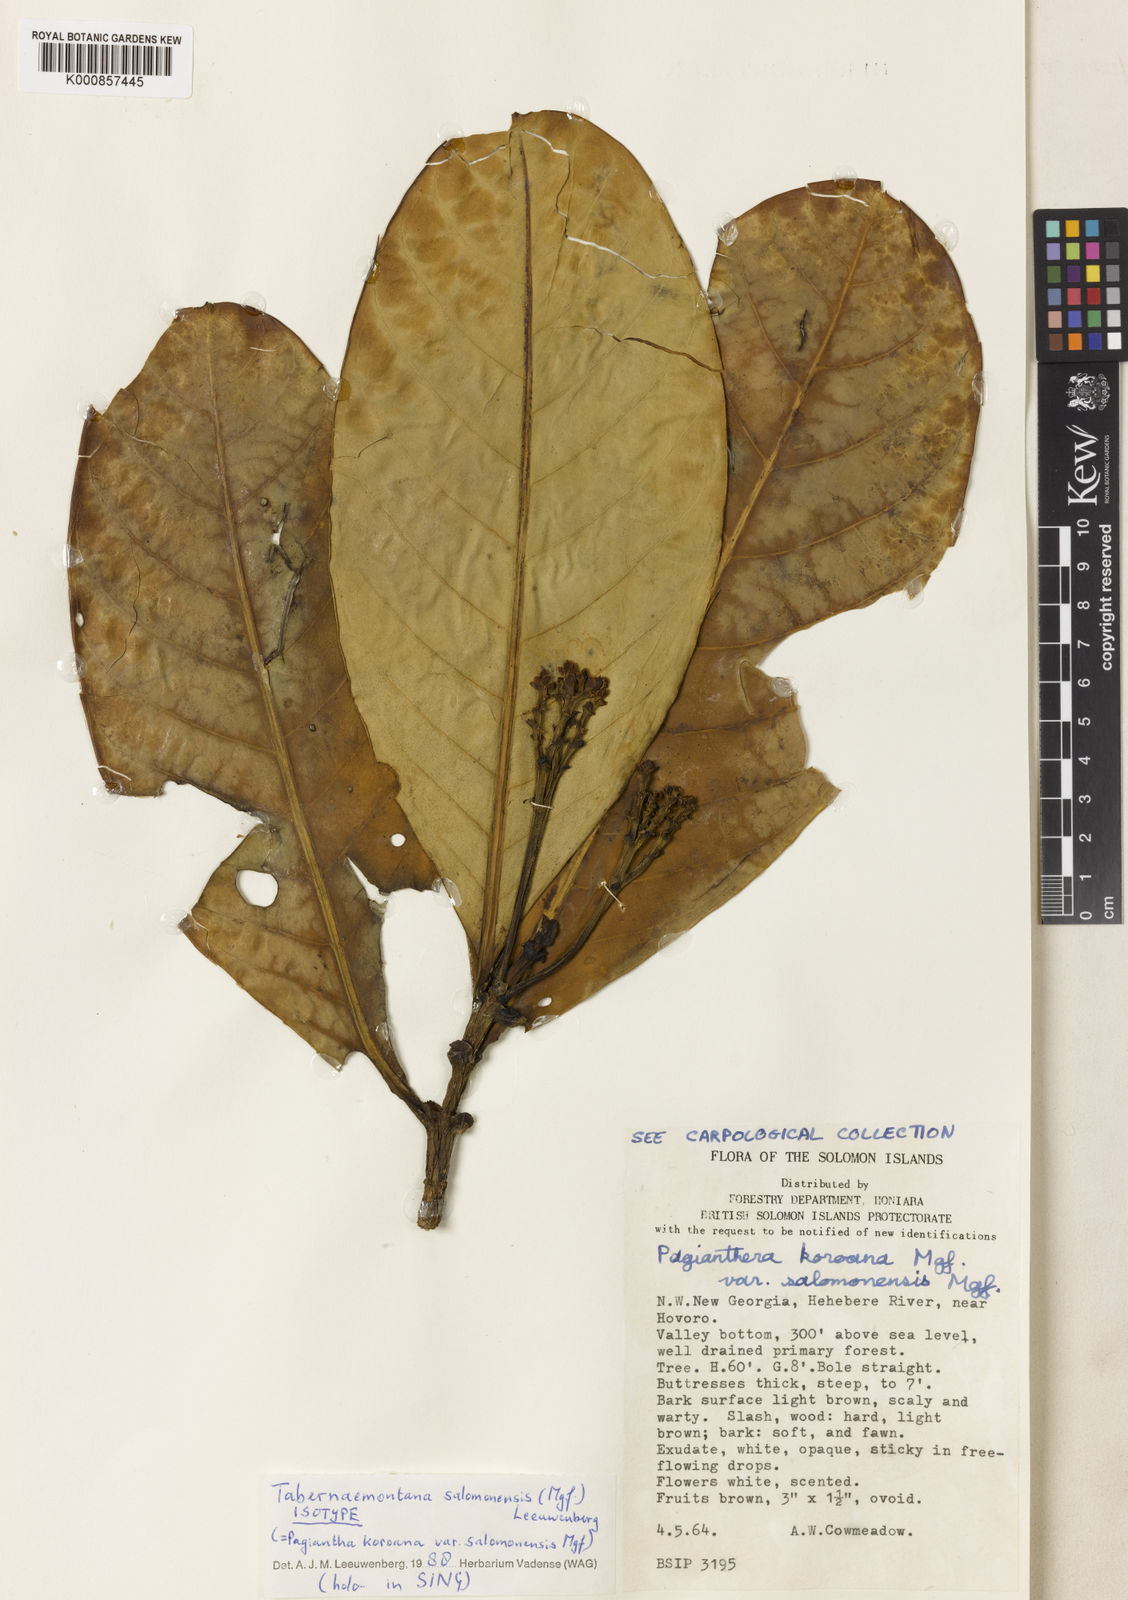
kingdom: Plantae
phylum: Tracheophyta
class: Magnoliopsida
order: Gentianales
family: Apocynaceae
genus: Tabernaemontana
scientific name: Tabernaemontana salomonensis
